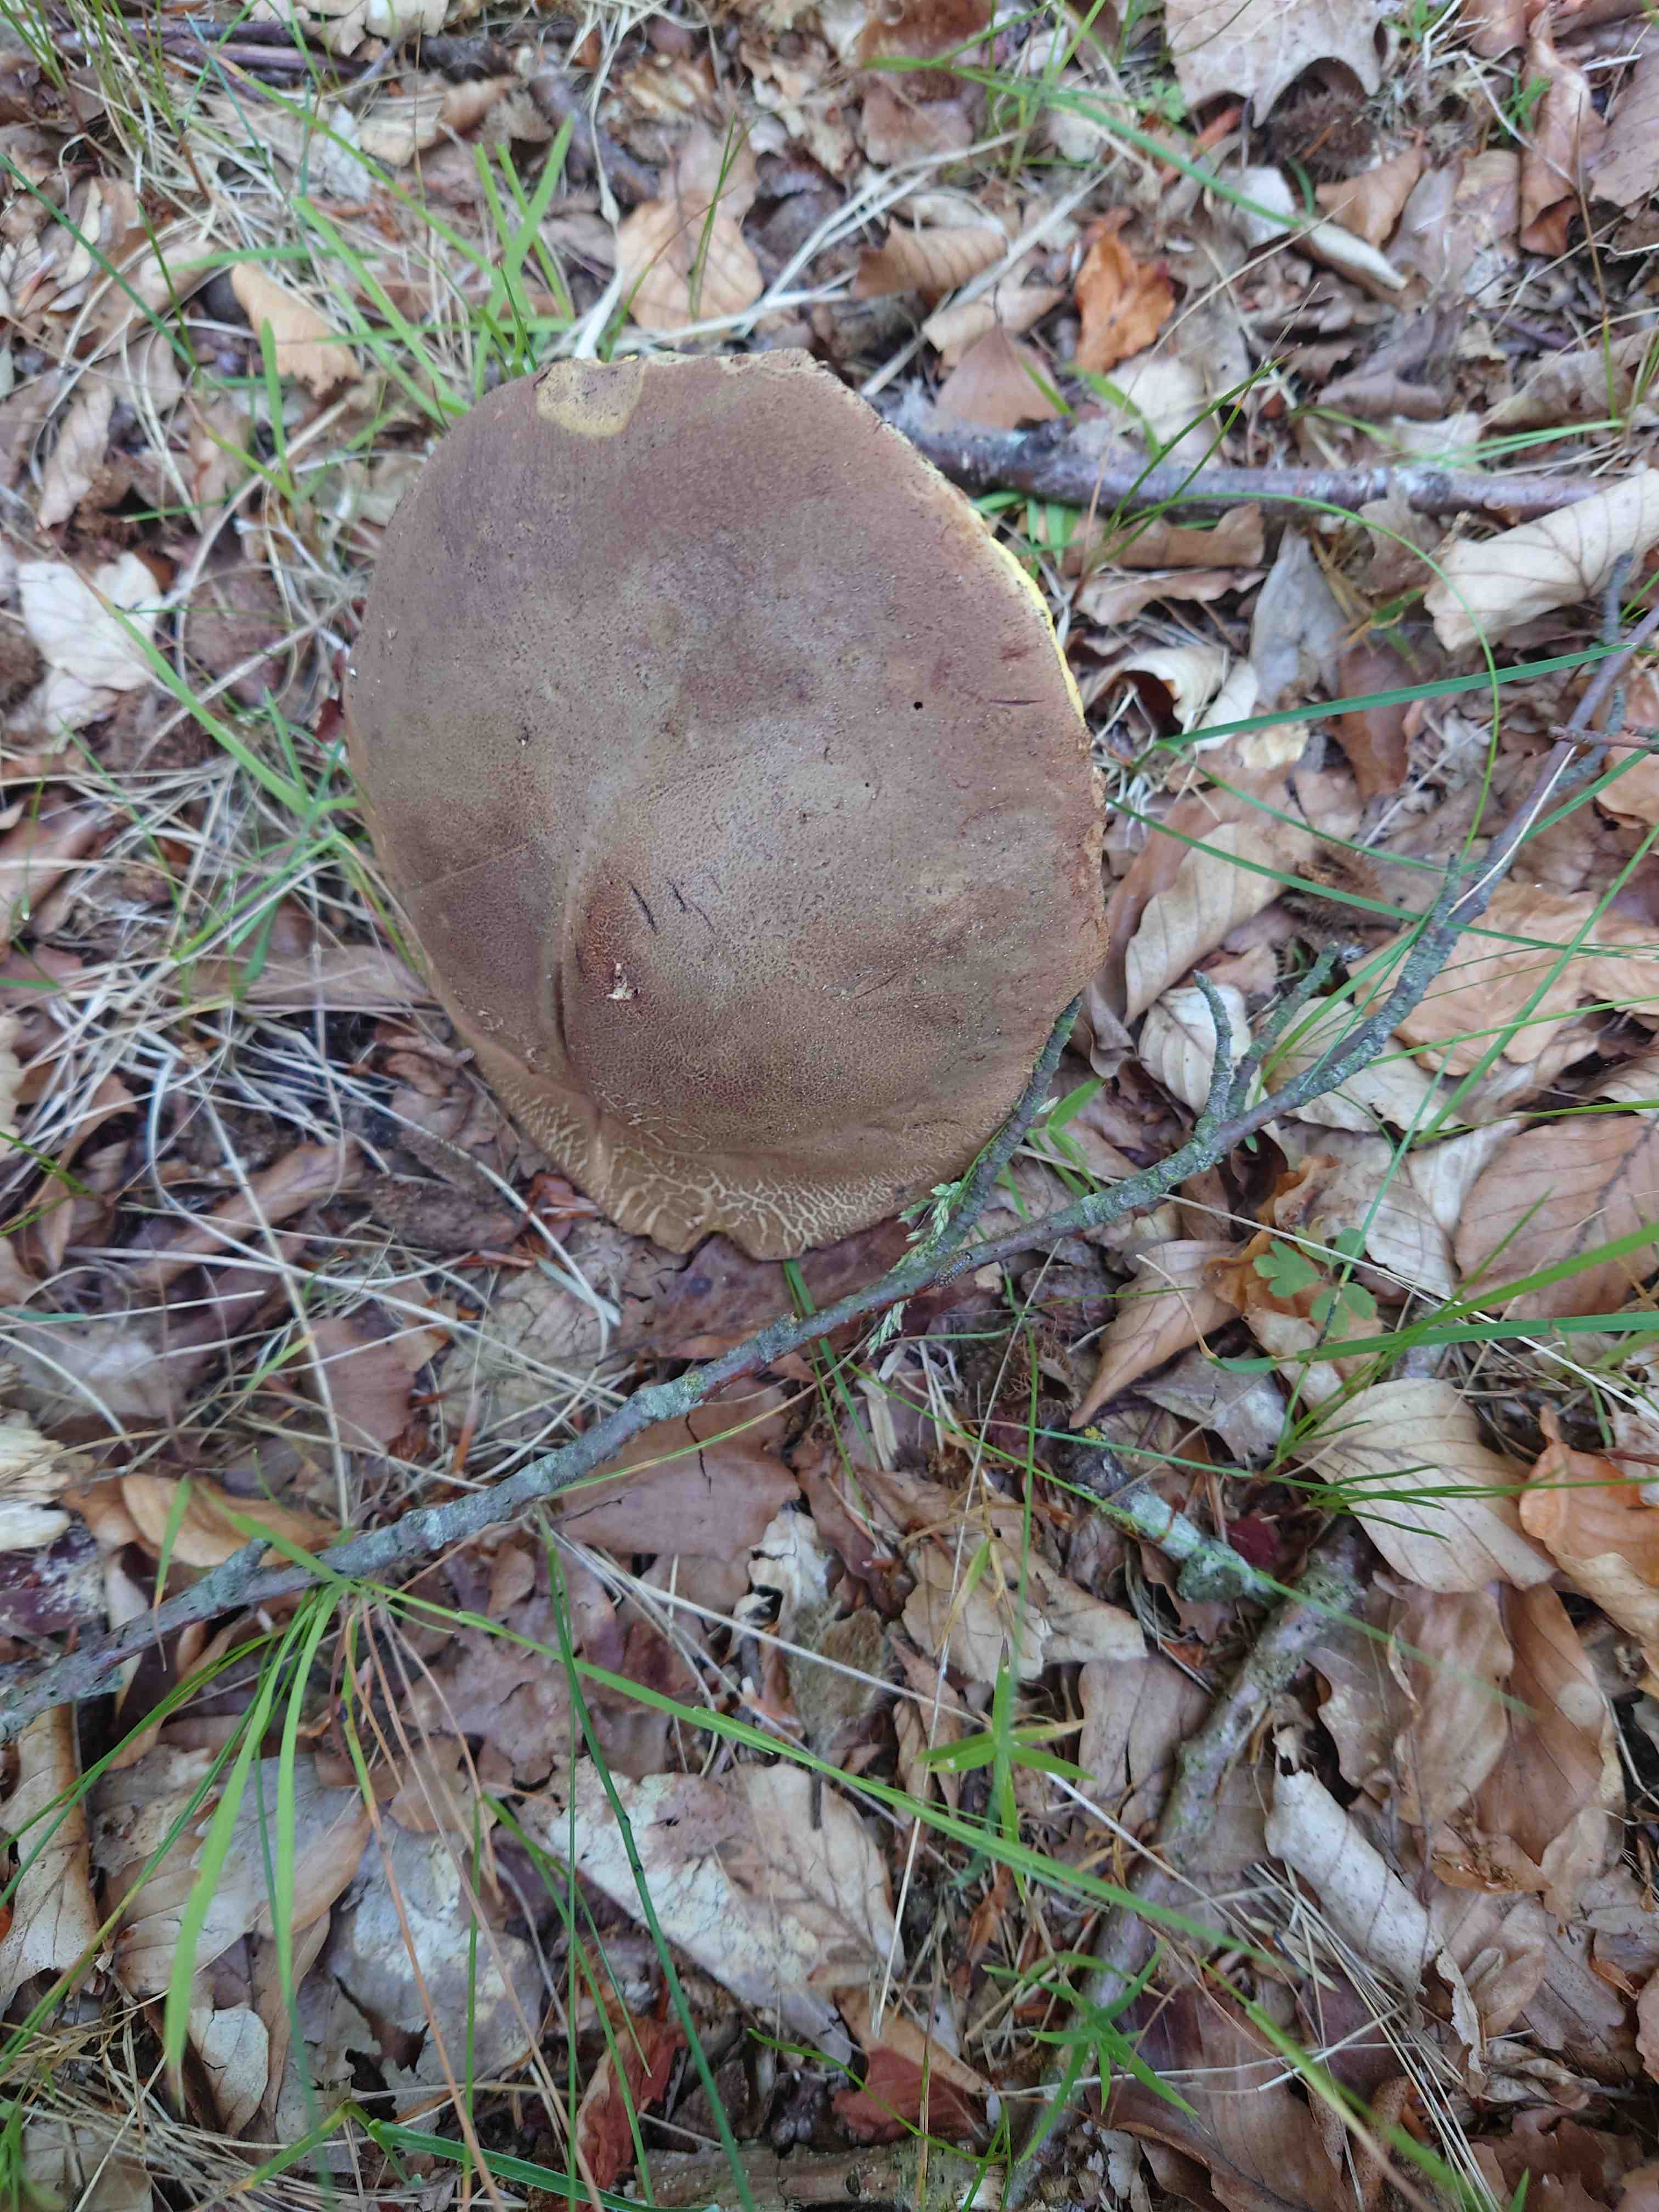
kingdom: Fungi
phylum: Basidiomycota
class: Agaricomycetes
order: Boletales
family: Boletaceae
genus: Butyriboletus
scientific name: Butyriboletus appendiculatus
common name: tenstokket rørhat
